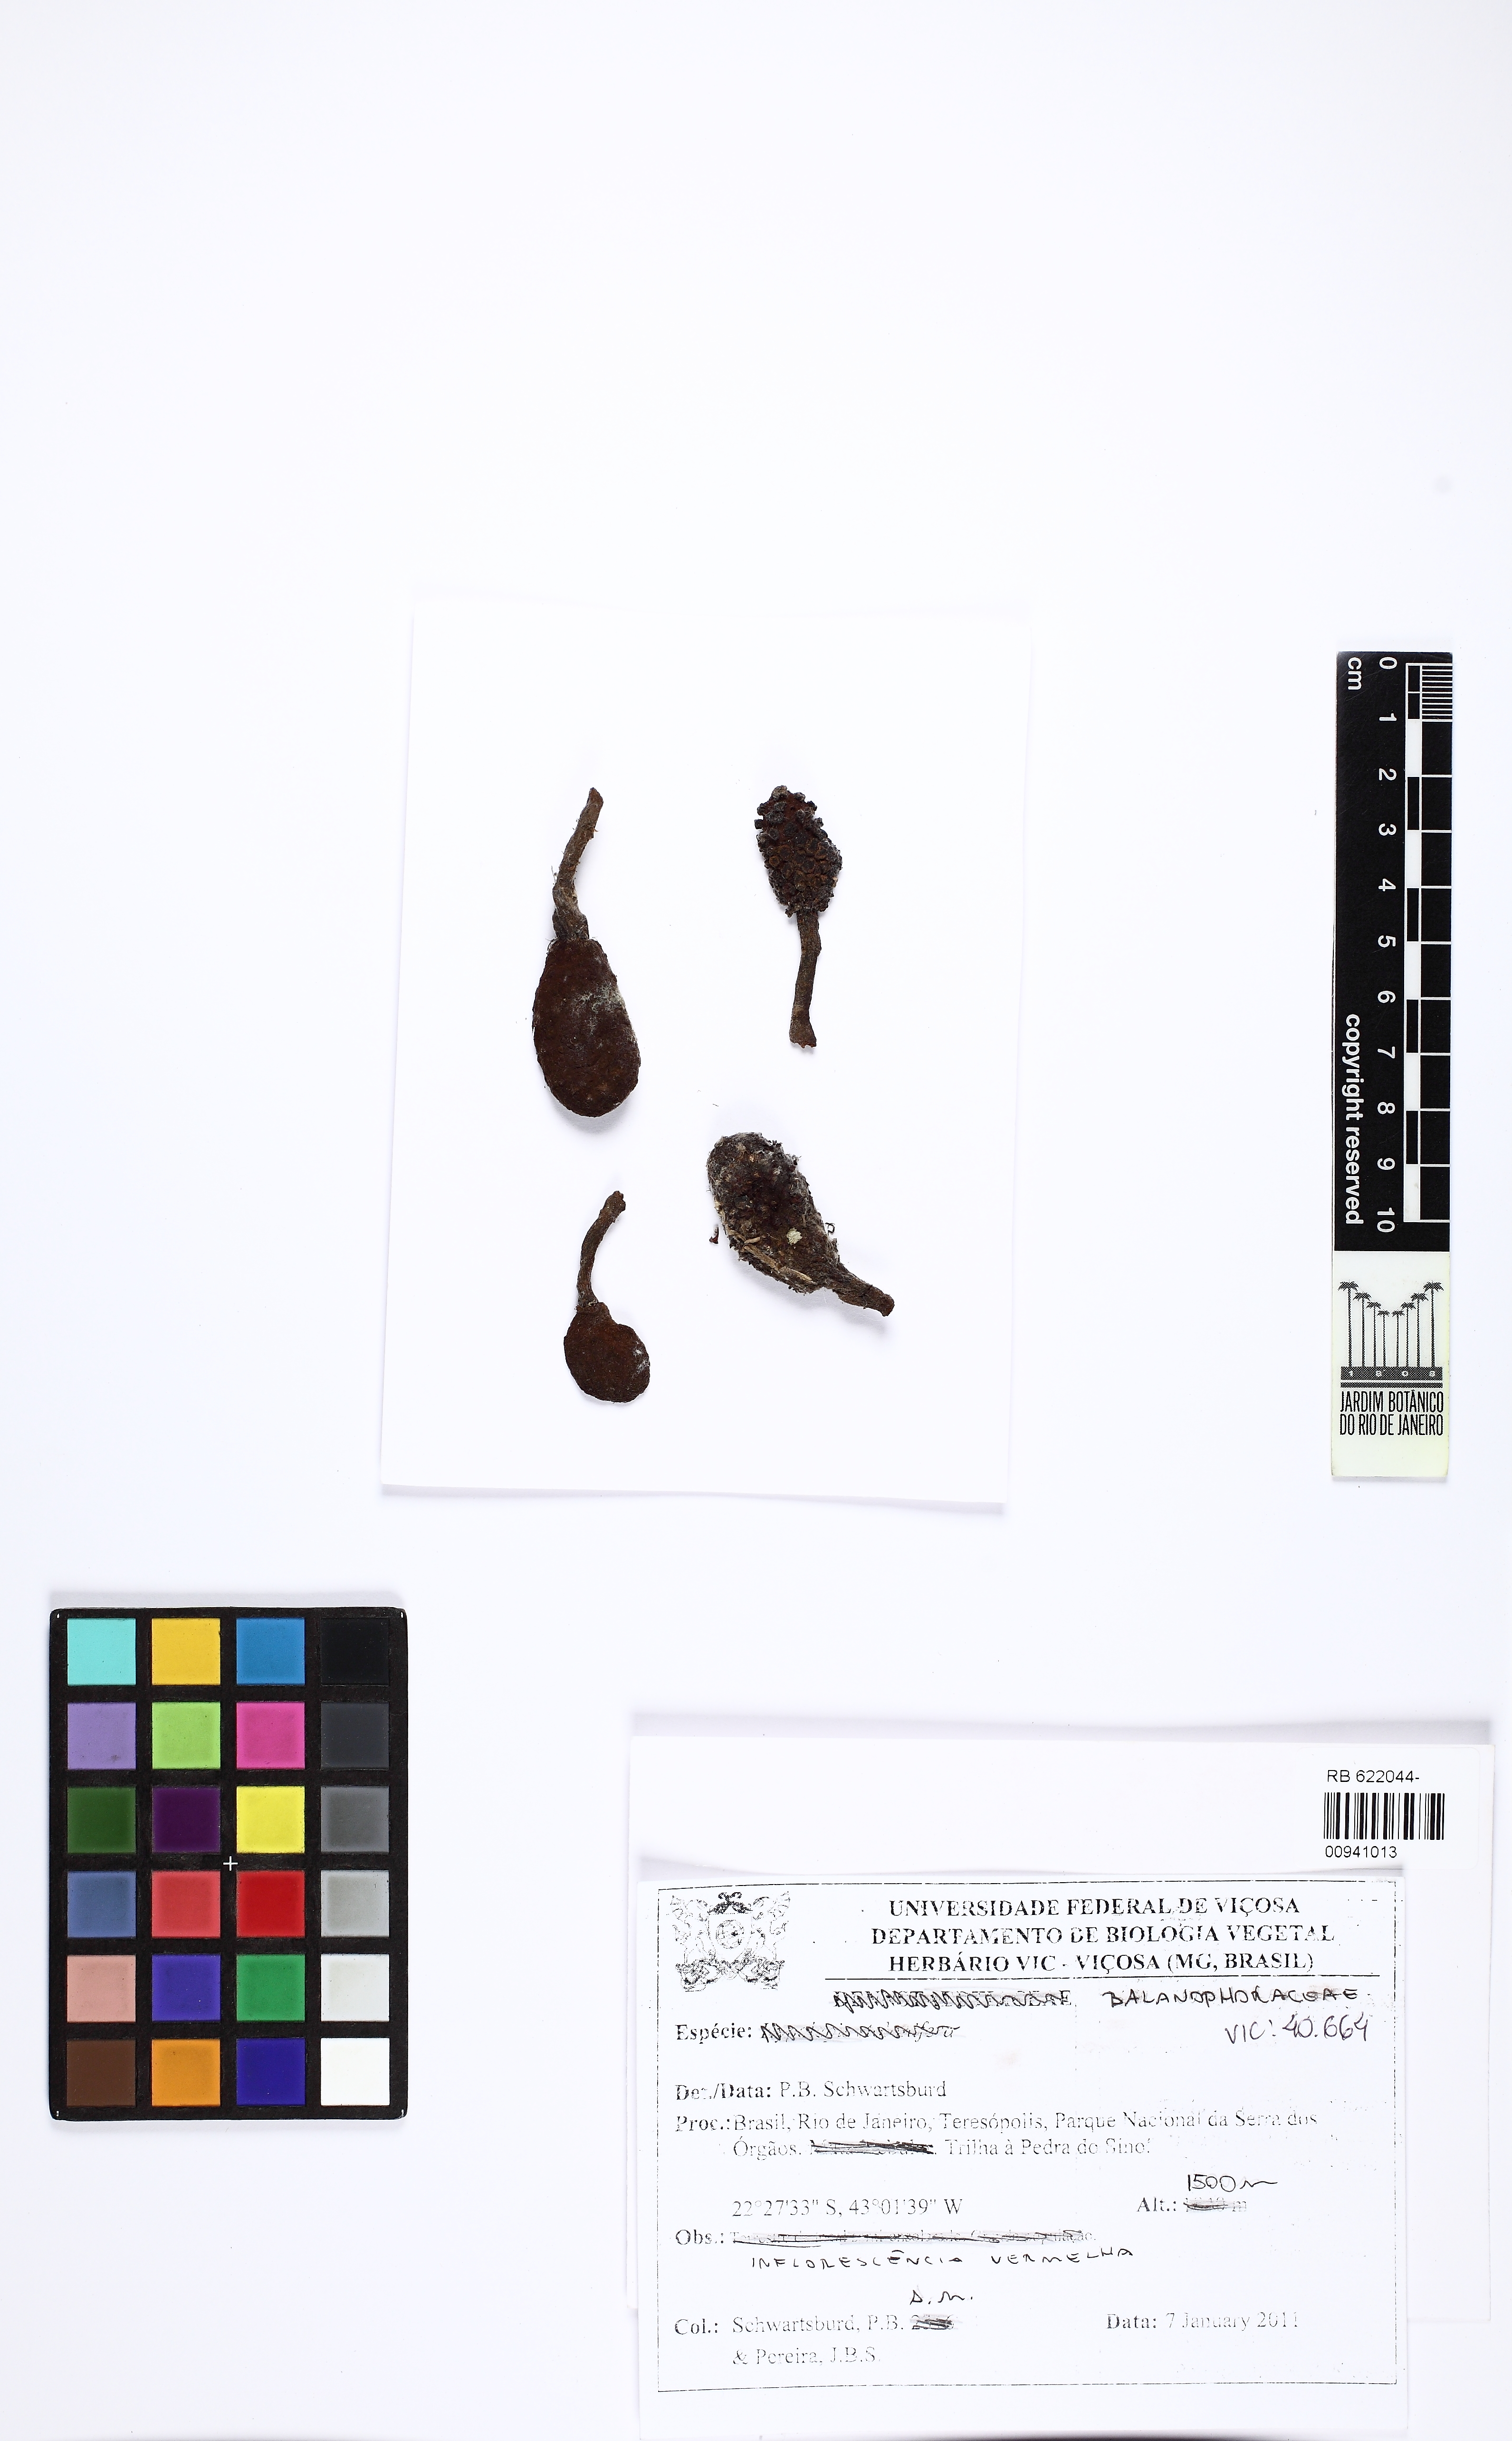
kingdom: Plantae
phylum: Tracheophyta
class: Magnoliopsida
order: Santalales
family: Balanophoraceae
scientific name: Balanophoraceae
